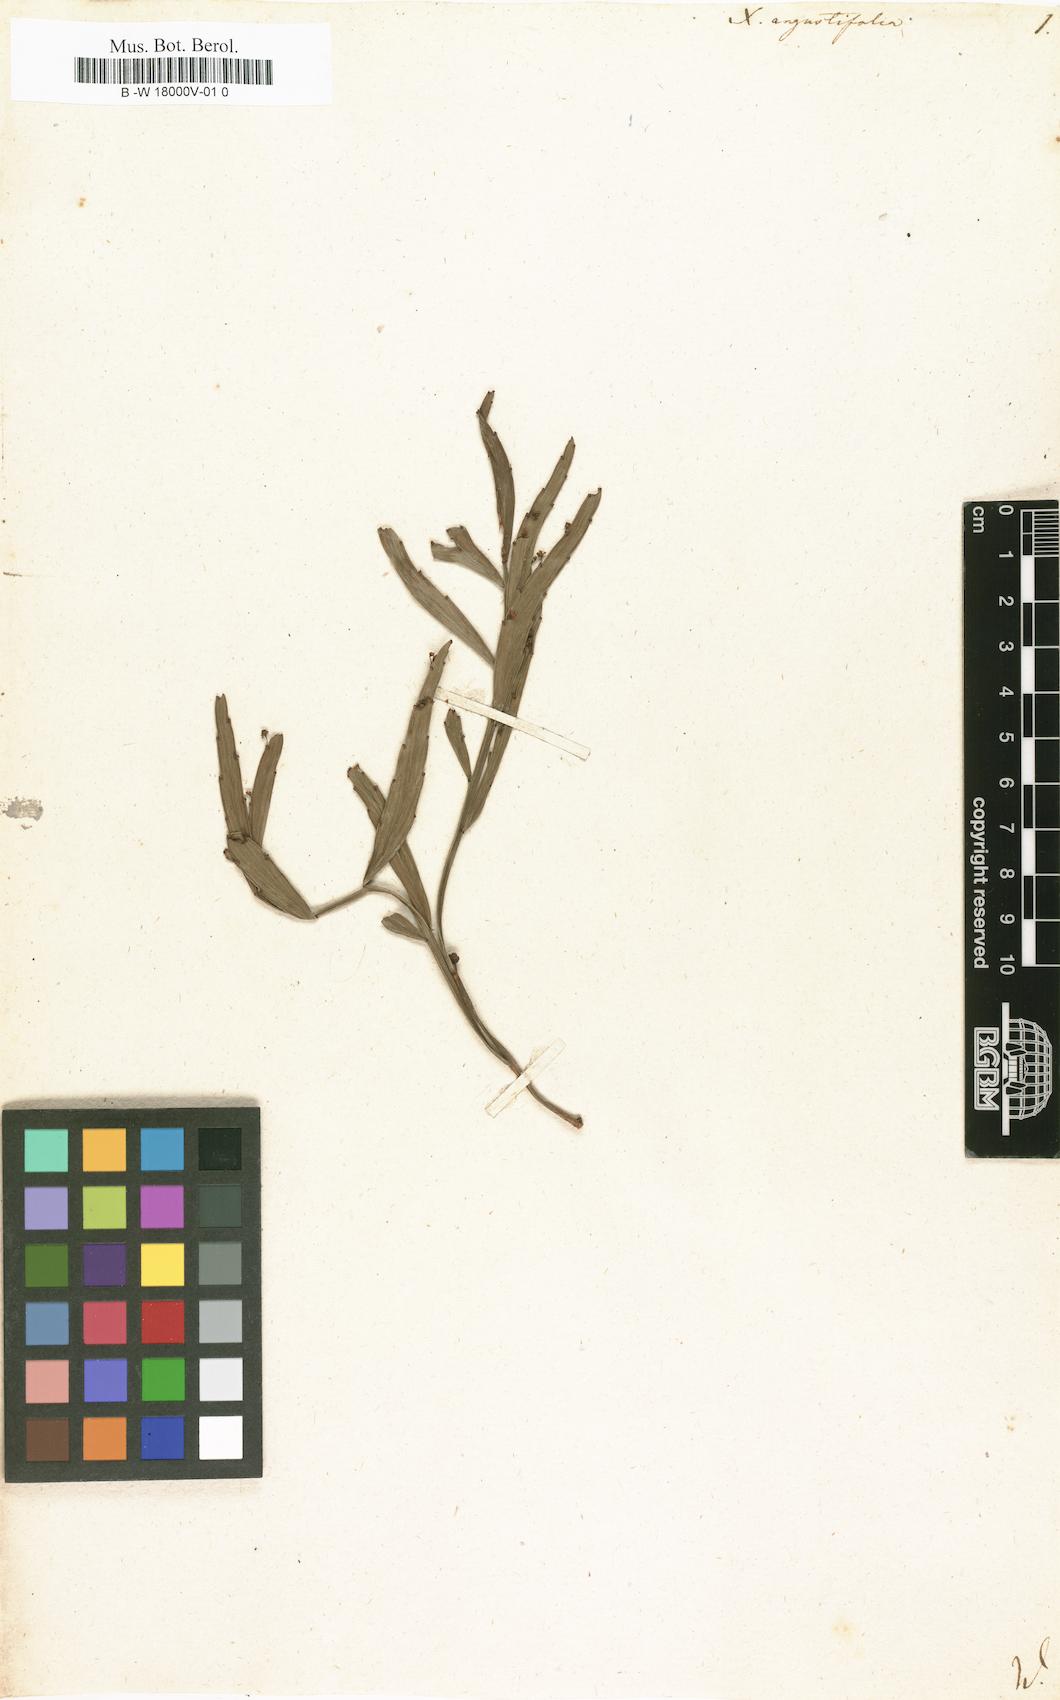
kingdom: Plantae
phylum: Tracheophyta
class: Magnoliopsida
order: Malpighiales
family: Phyllanthaceae
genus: Phyllanthus
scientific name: Phyllanthus angustifolius
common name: Foliage flower
